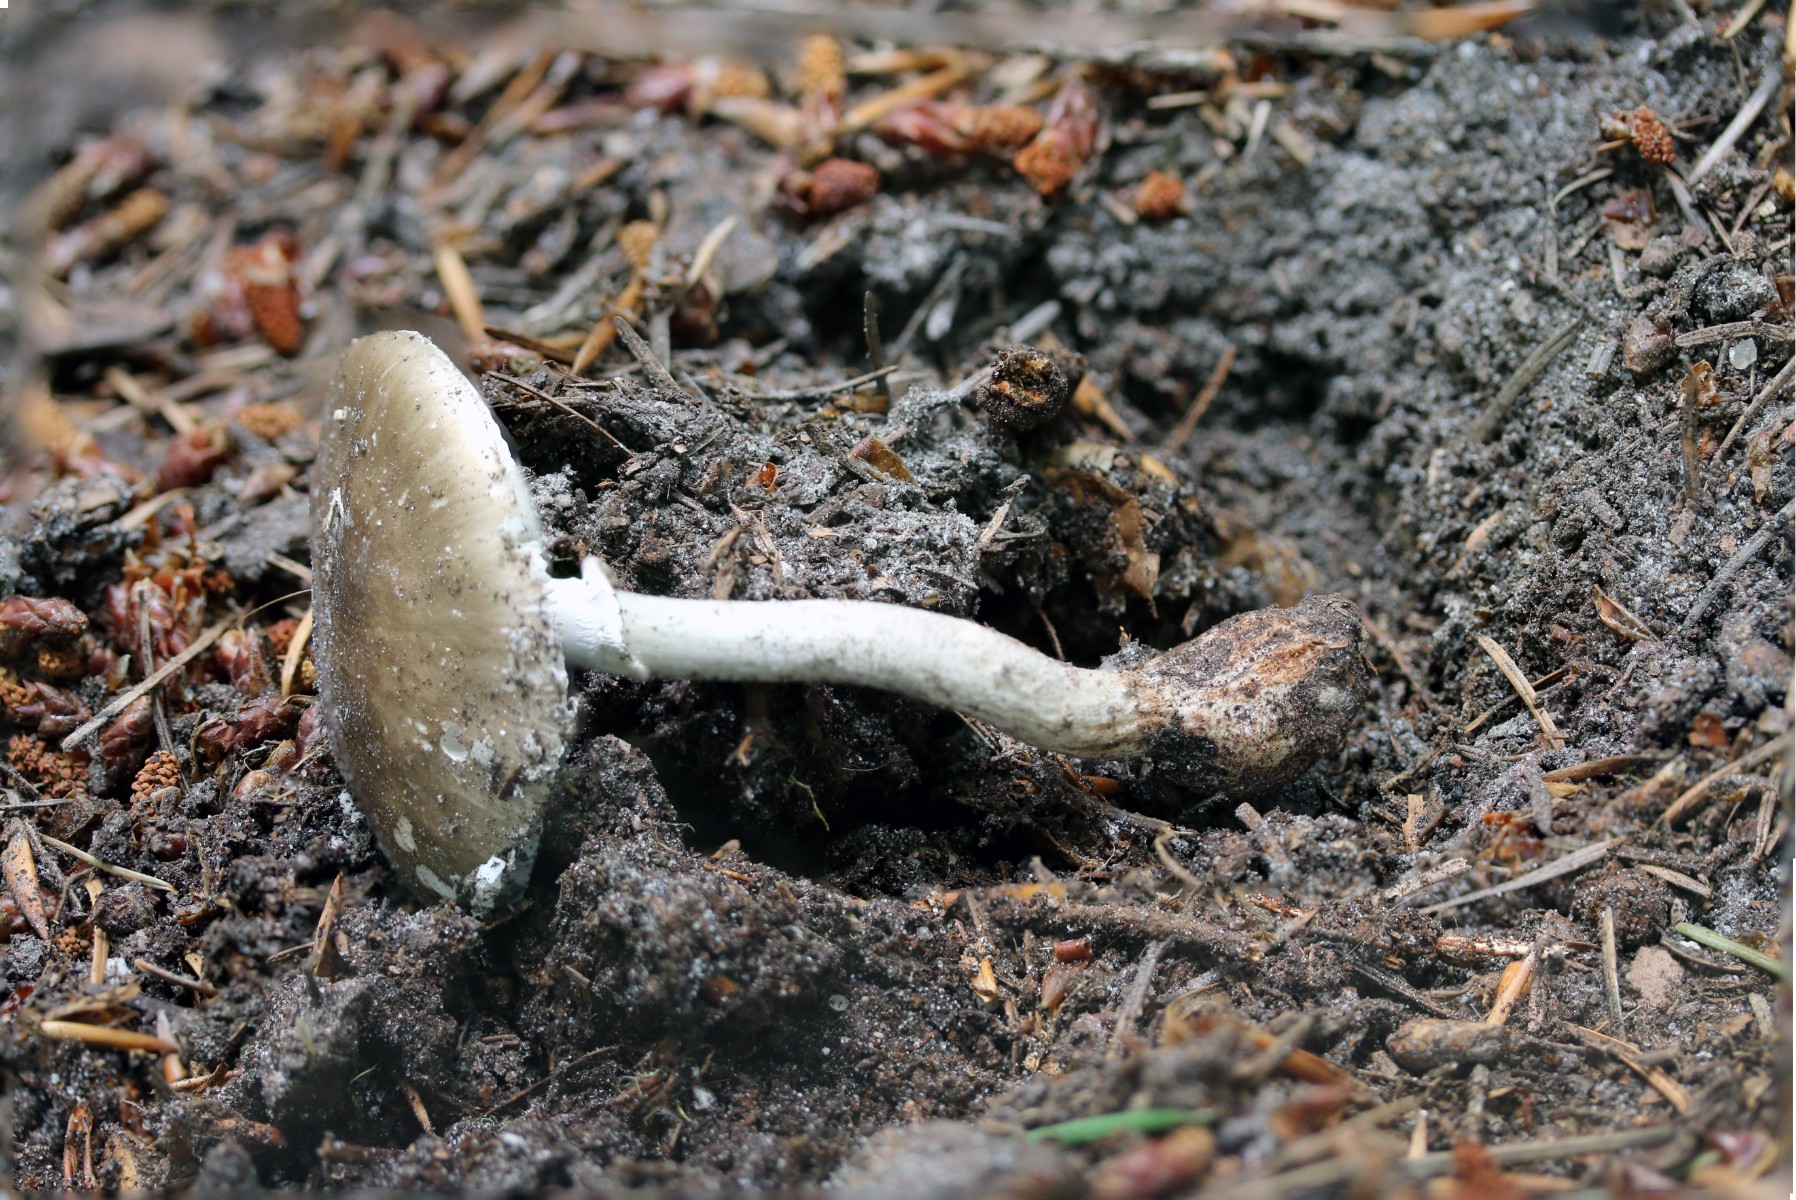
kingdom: Fungi
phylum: Basidiomycota
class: Agaricomycetes
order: Agaricales
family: Amanitaceae
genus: Amanita
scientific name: Amanita pantherina
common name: panter-fluesvamp
